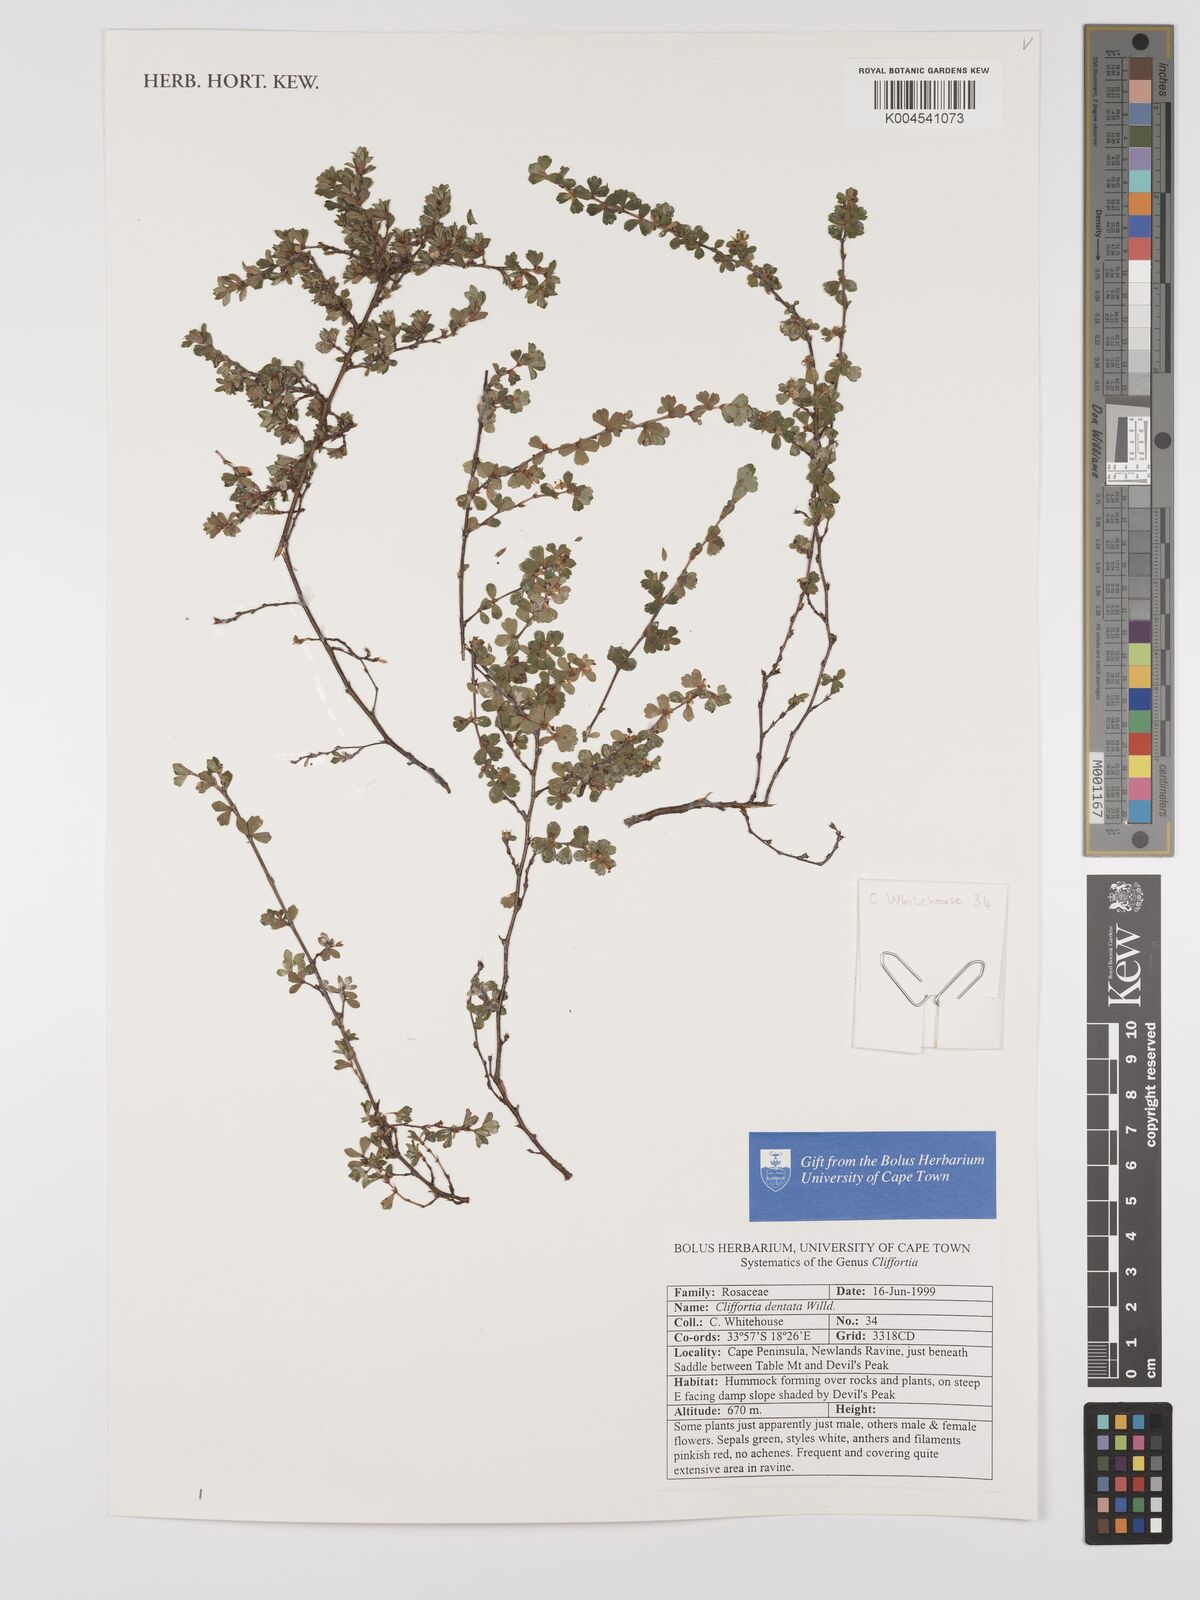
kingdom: Plantae
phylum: Tracheophyta
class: Magnoliopsida
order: Rosales
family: Rosaceae
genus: Cliffortia
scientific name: Cliffortia
